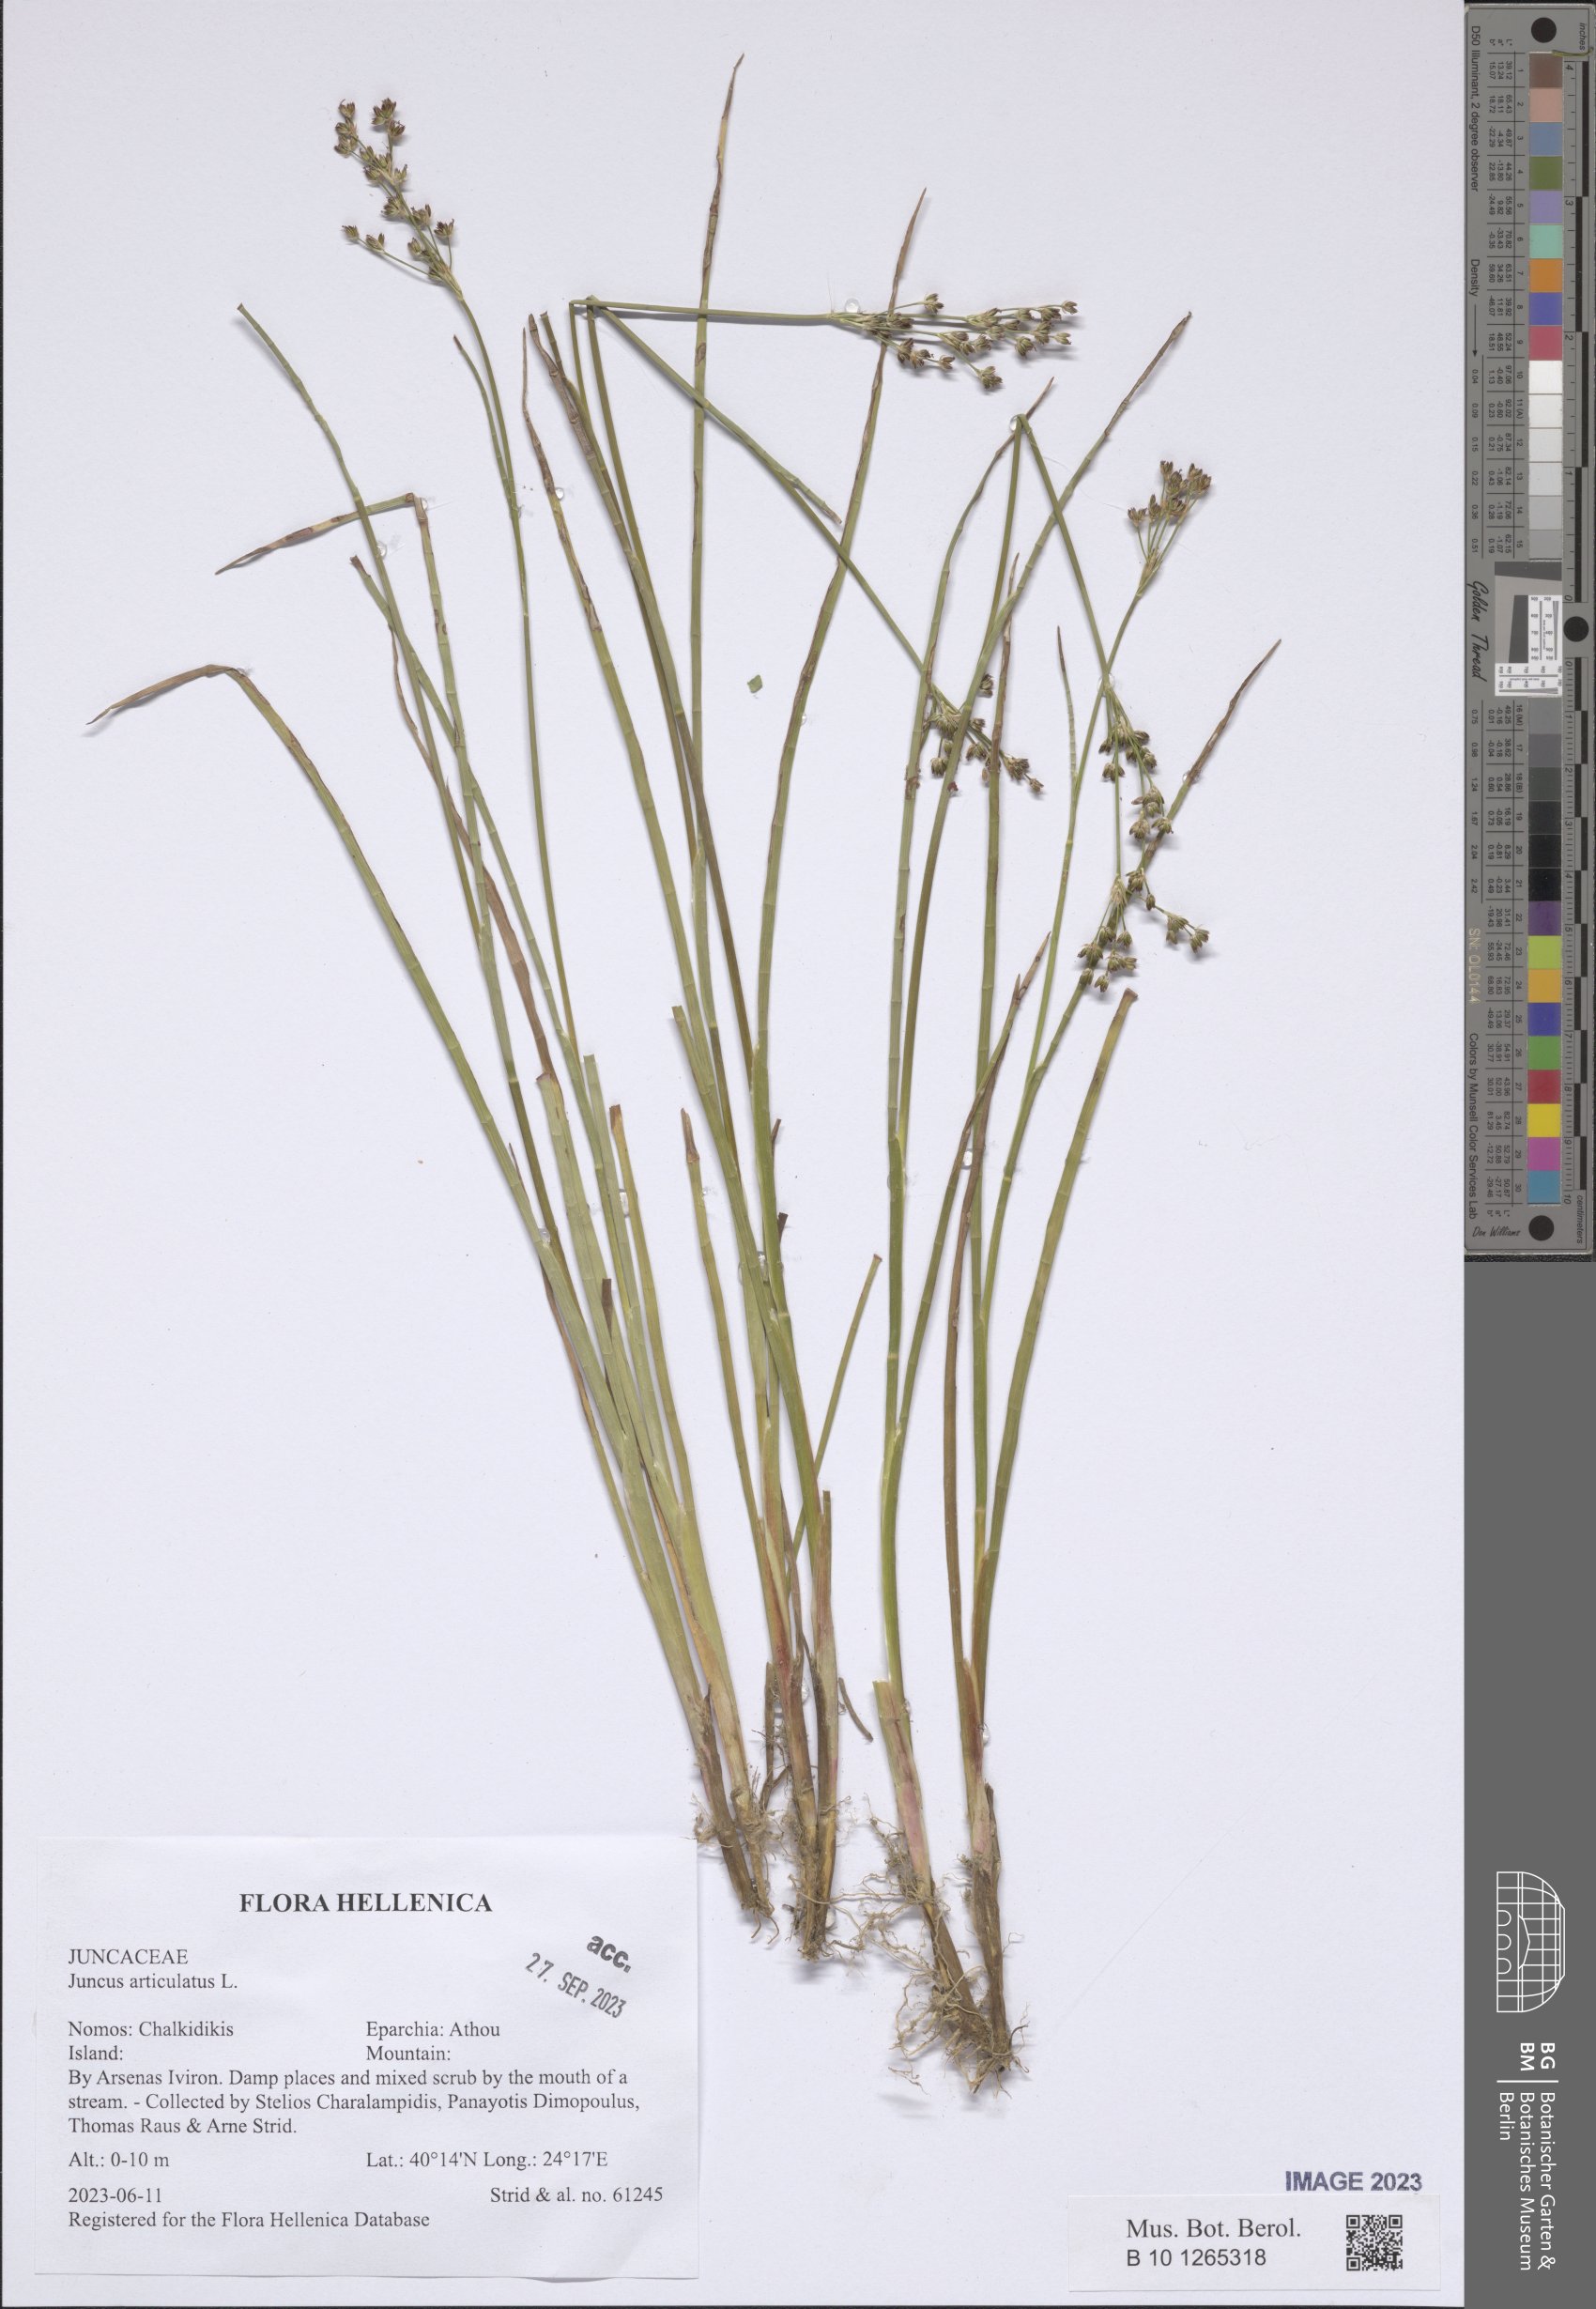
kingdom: Plantae
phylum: Tracheophyta
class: Liliopsida
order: Poales
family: Juncaceae
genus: Juncus
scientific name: Juncus articulatus
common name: Jointed rush
